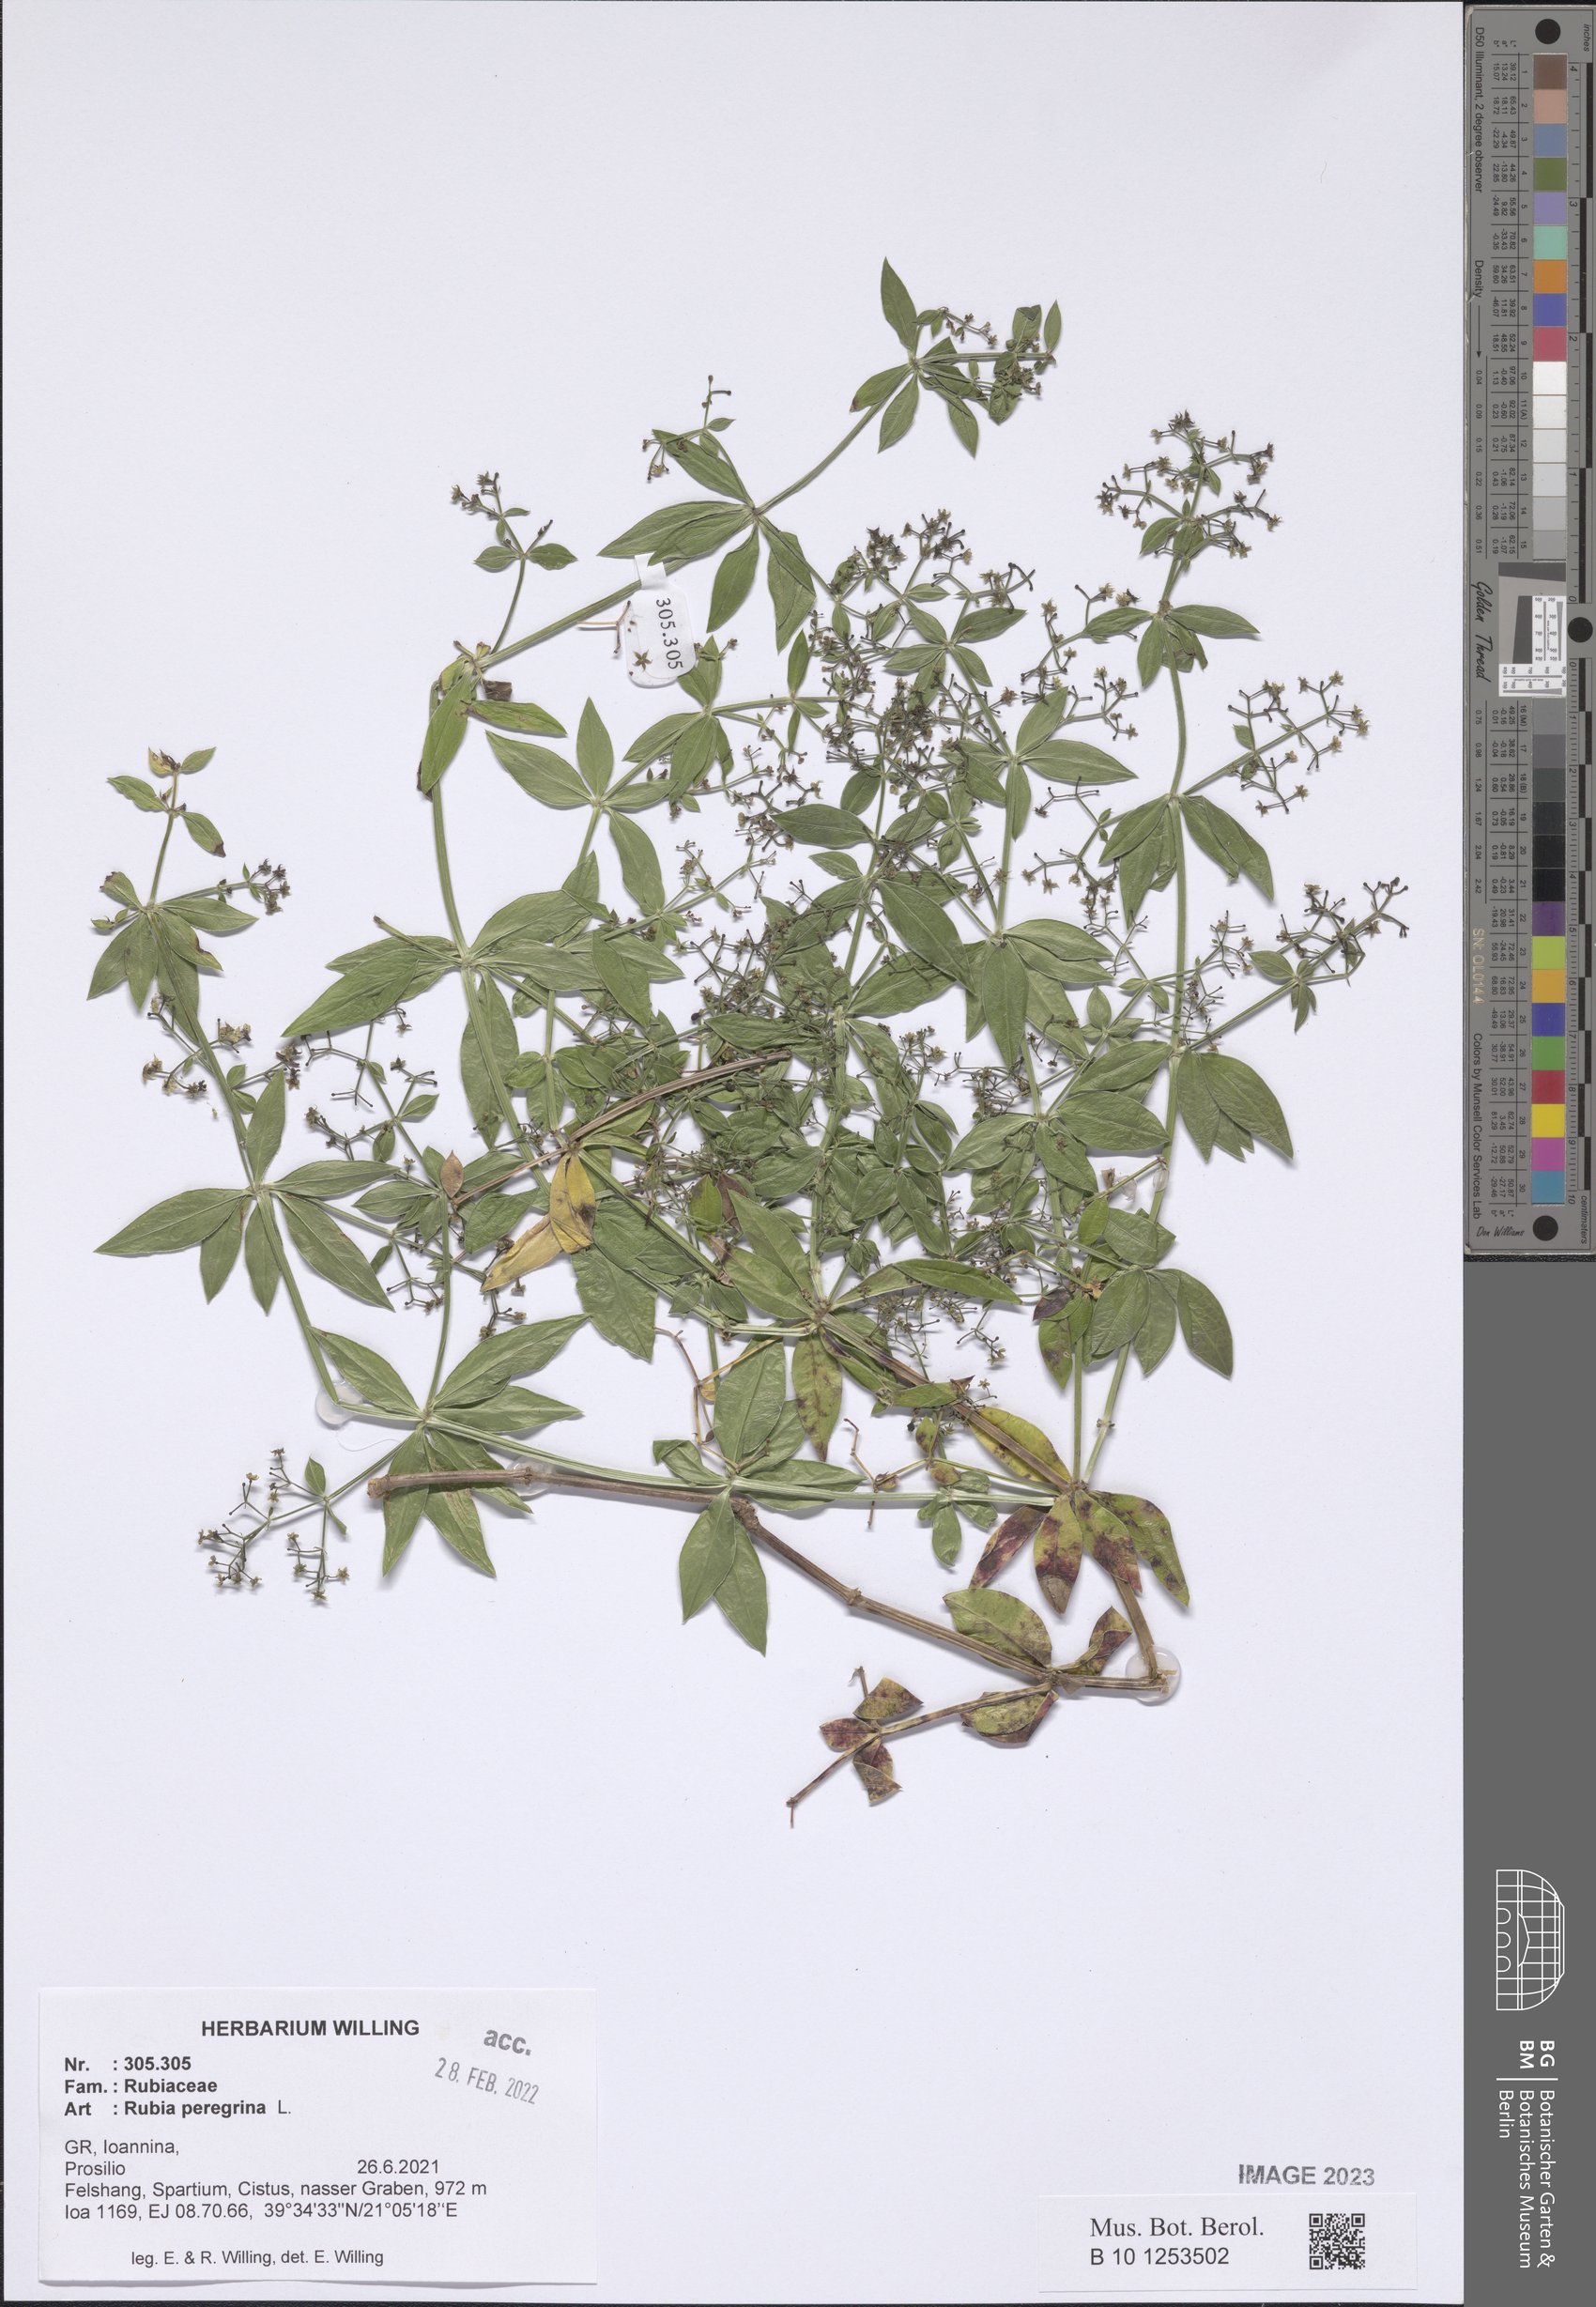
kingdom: Plantae
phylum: Tracheophyta
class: Magnoliopsida
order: Gentianales
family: Rubiaceae
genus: Rubia
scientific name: Rubia peregrina
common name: Wild madder
